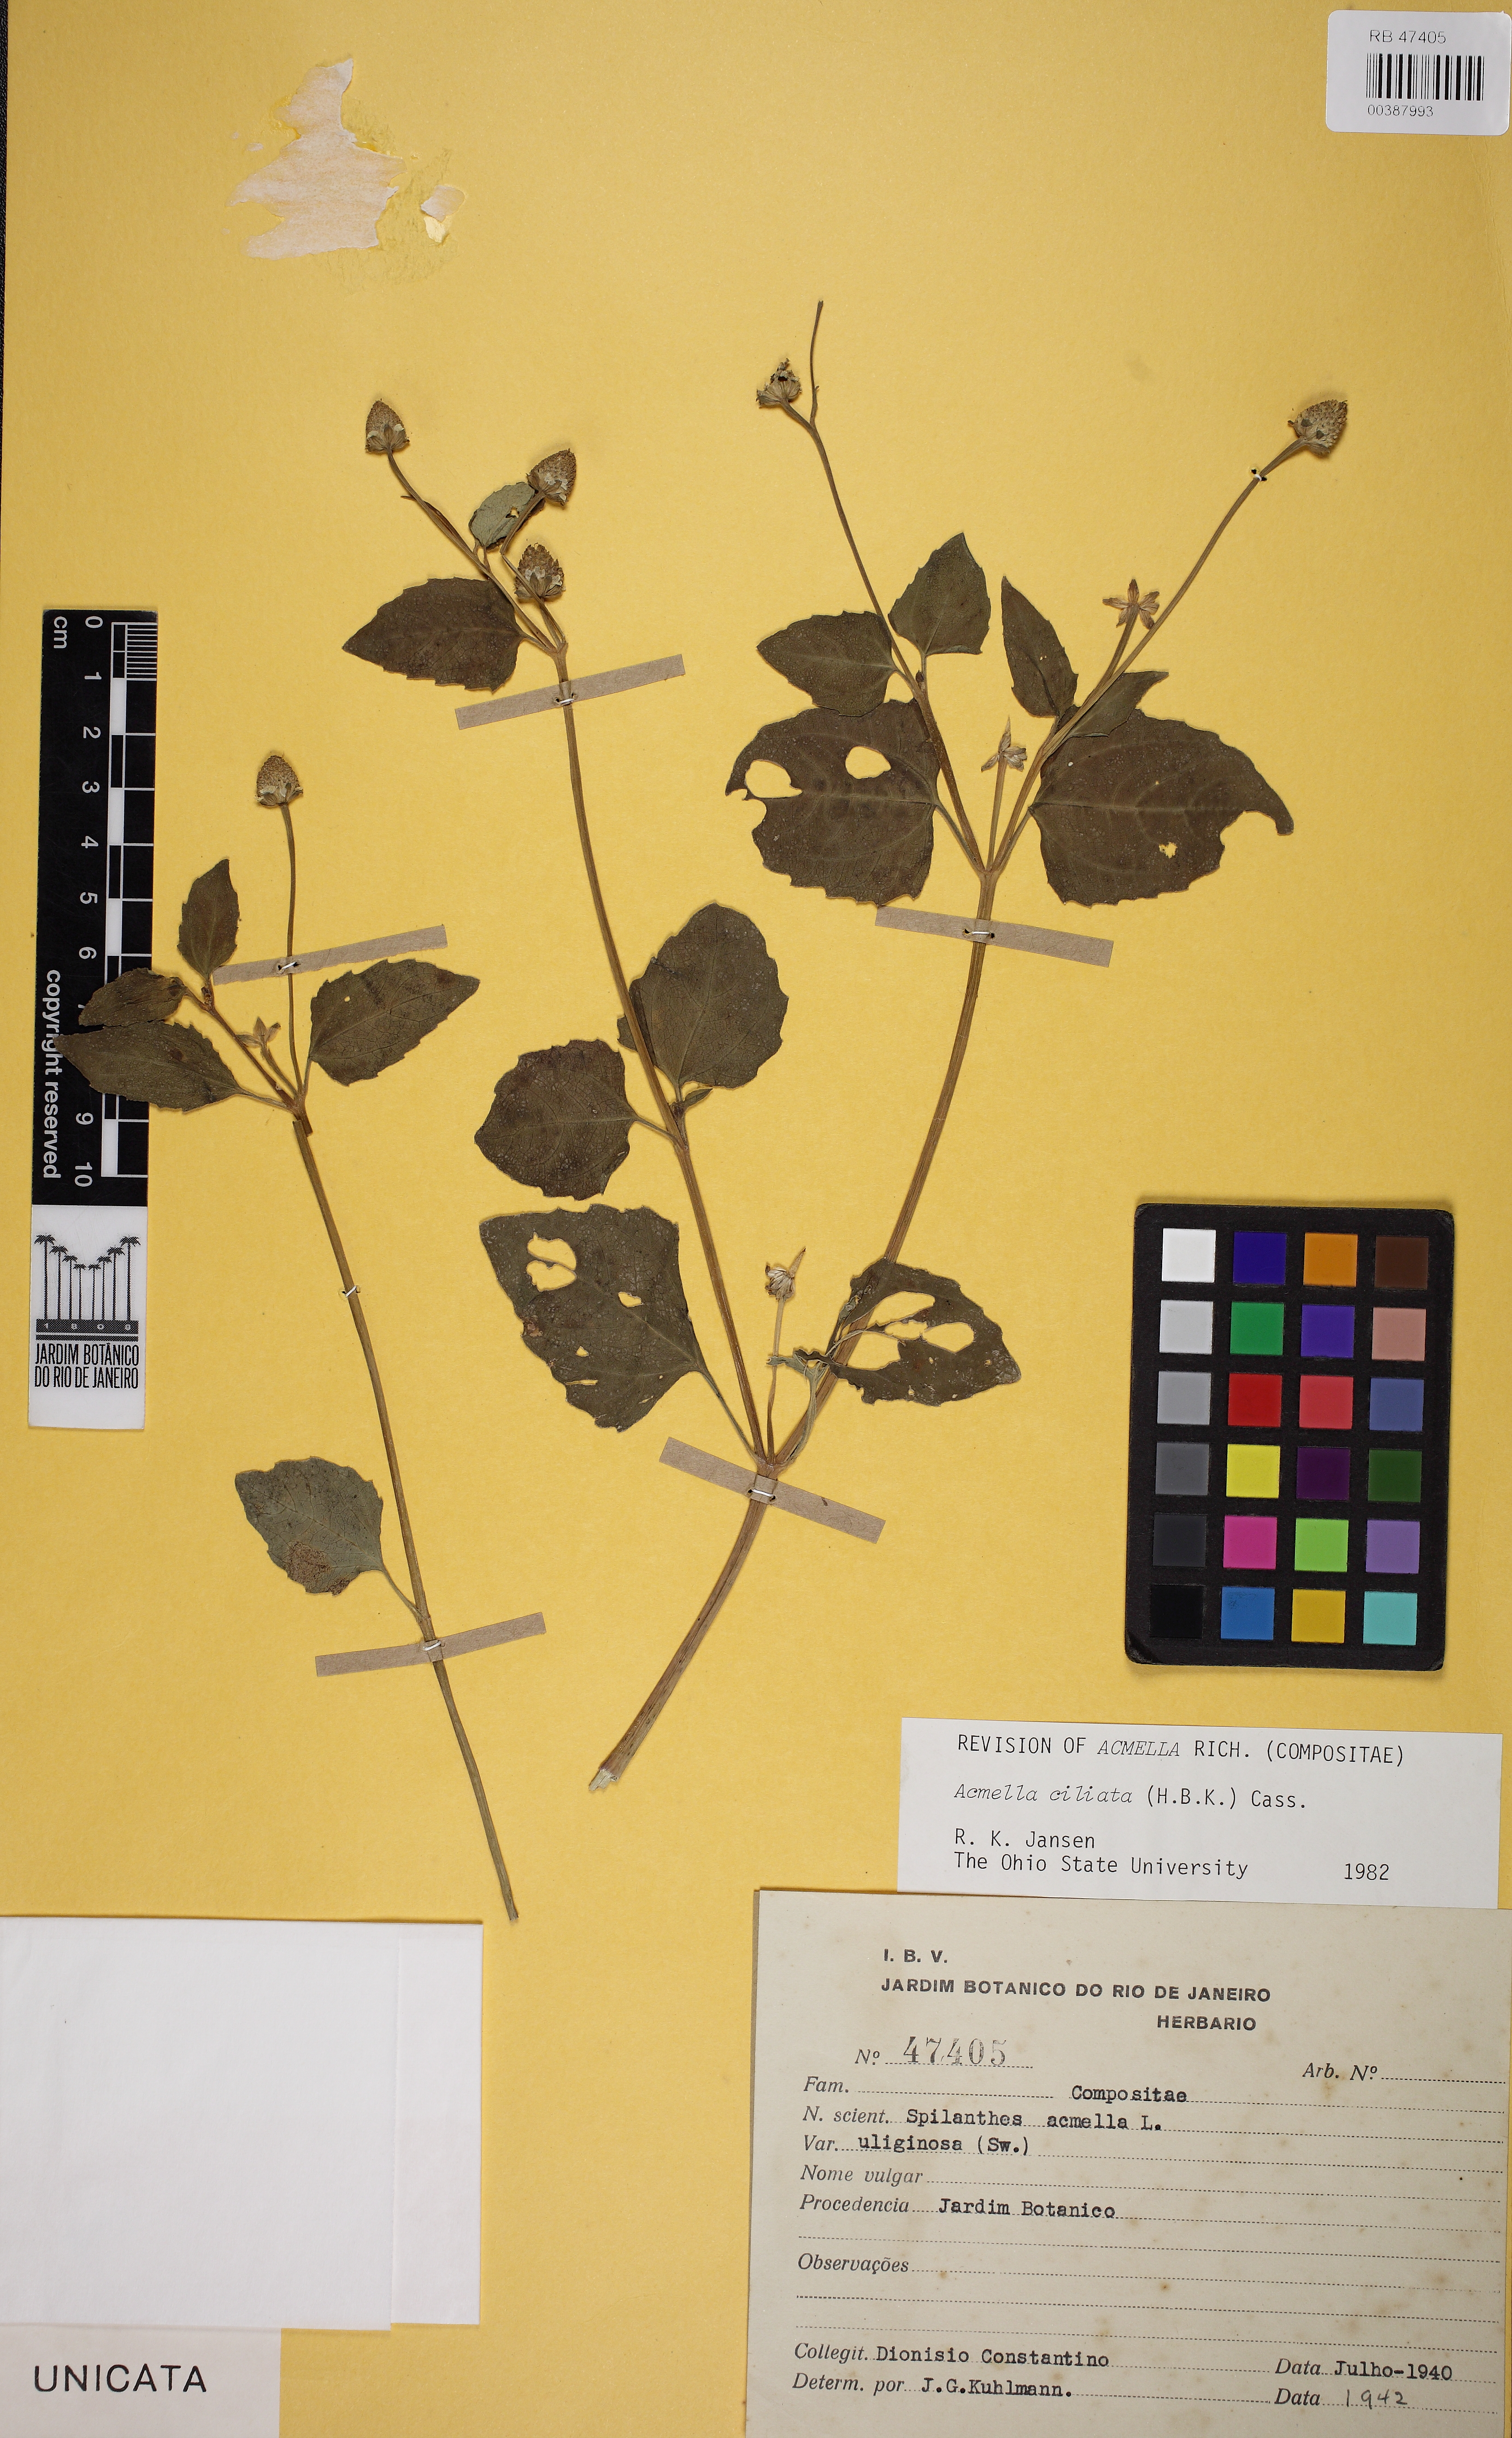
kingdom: Plantae
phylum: Tracheophyta
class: Magnoliopsida
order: Asterales
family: Asteraceae
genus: Acmella
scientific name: Acmella ciliata
